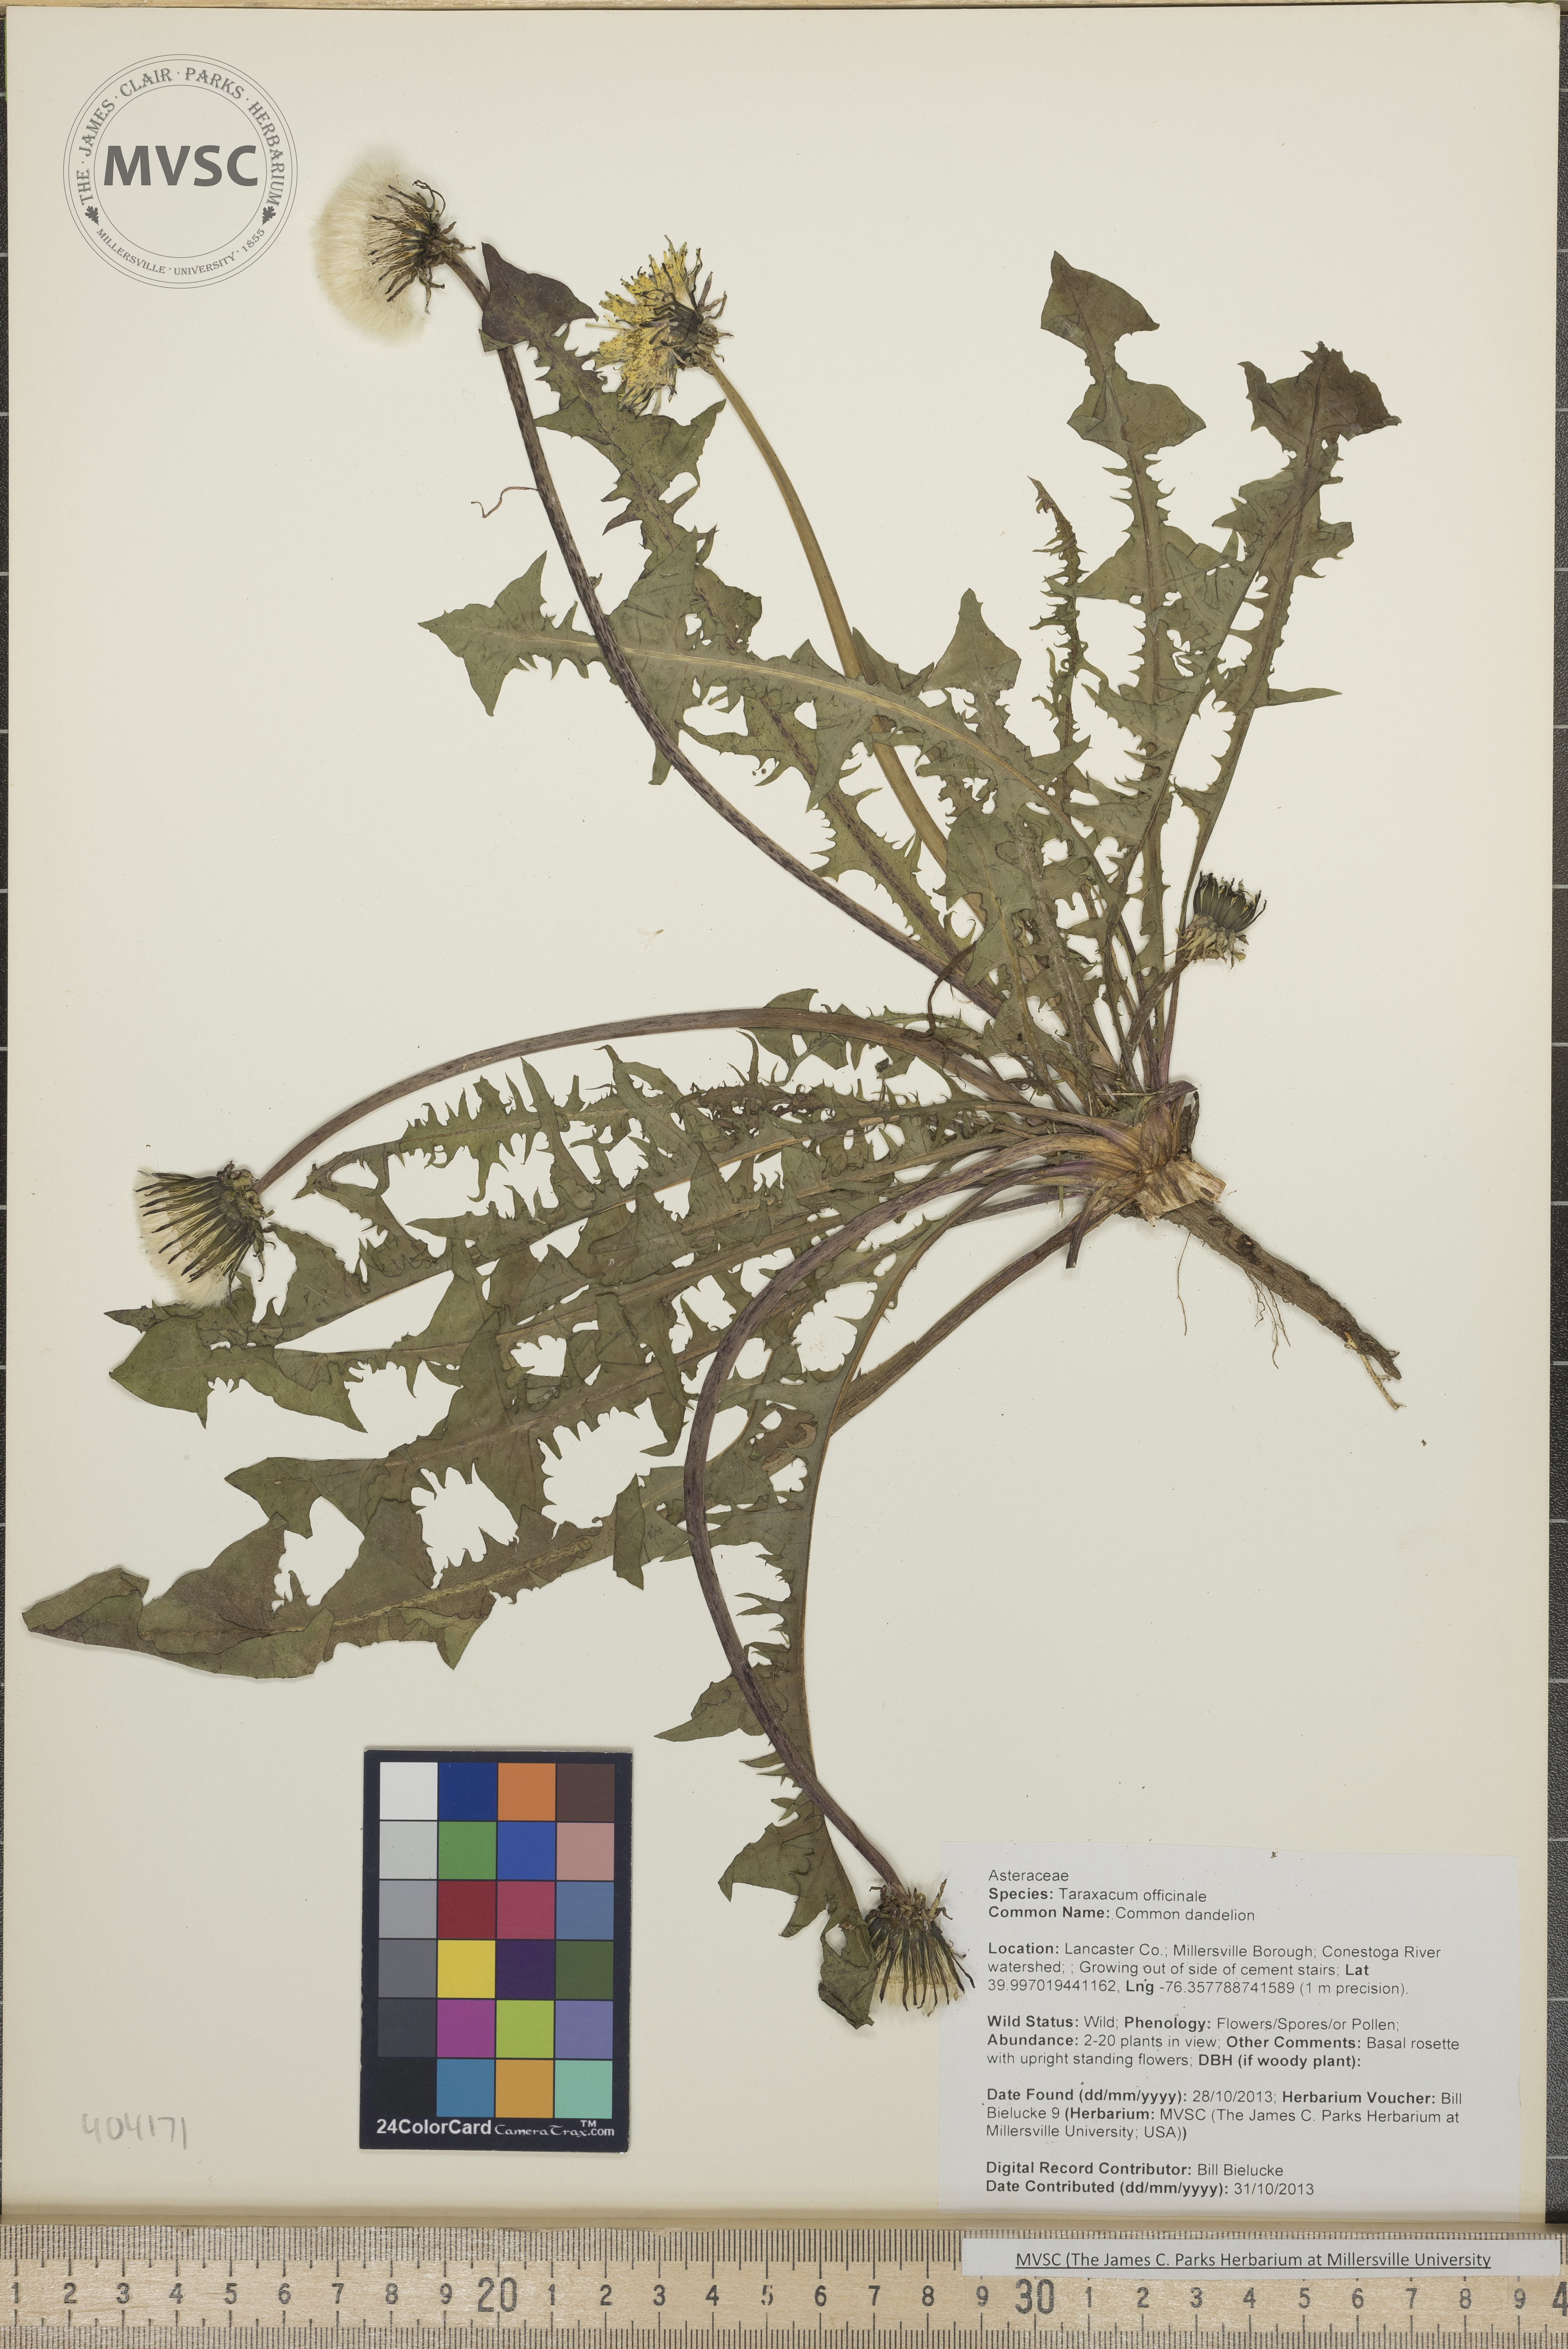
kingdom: Plantae
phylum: Tracheophyta
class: Magnoliopsida
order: Asterales
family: Asteraceae
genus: Taraxacum
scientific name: Taraxacum officinale
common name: Common dandelion
